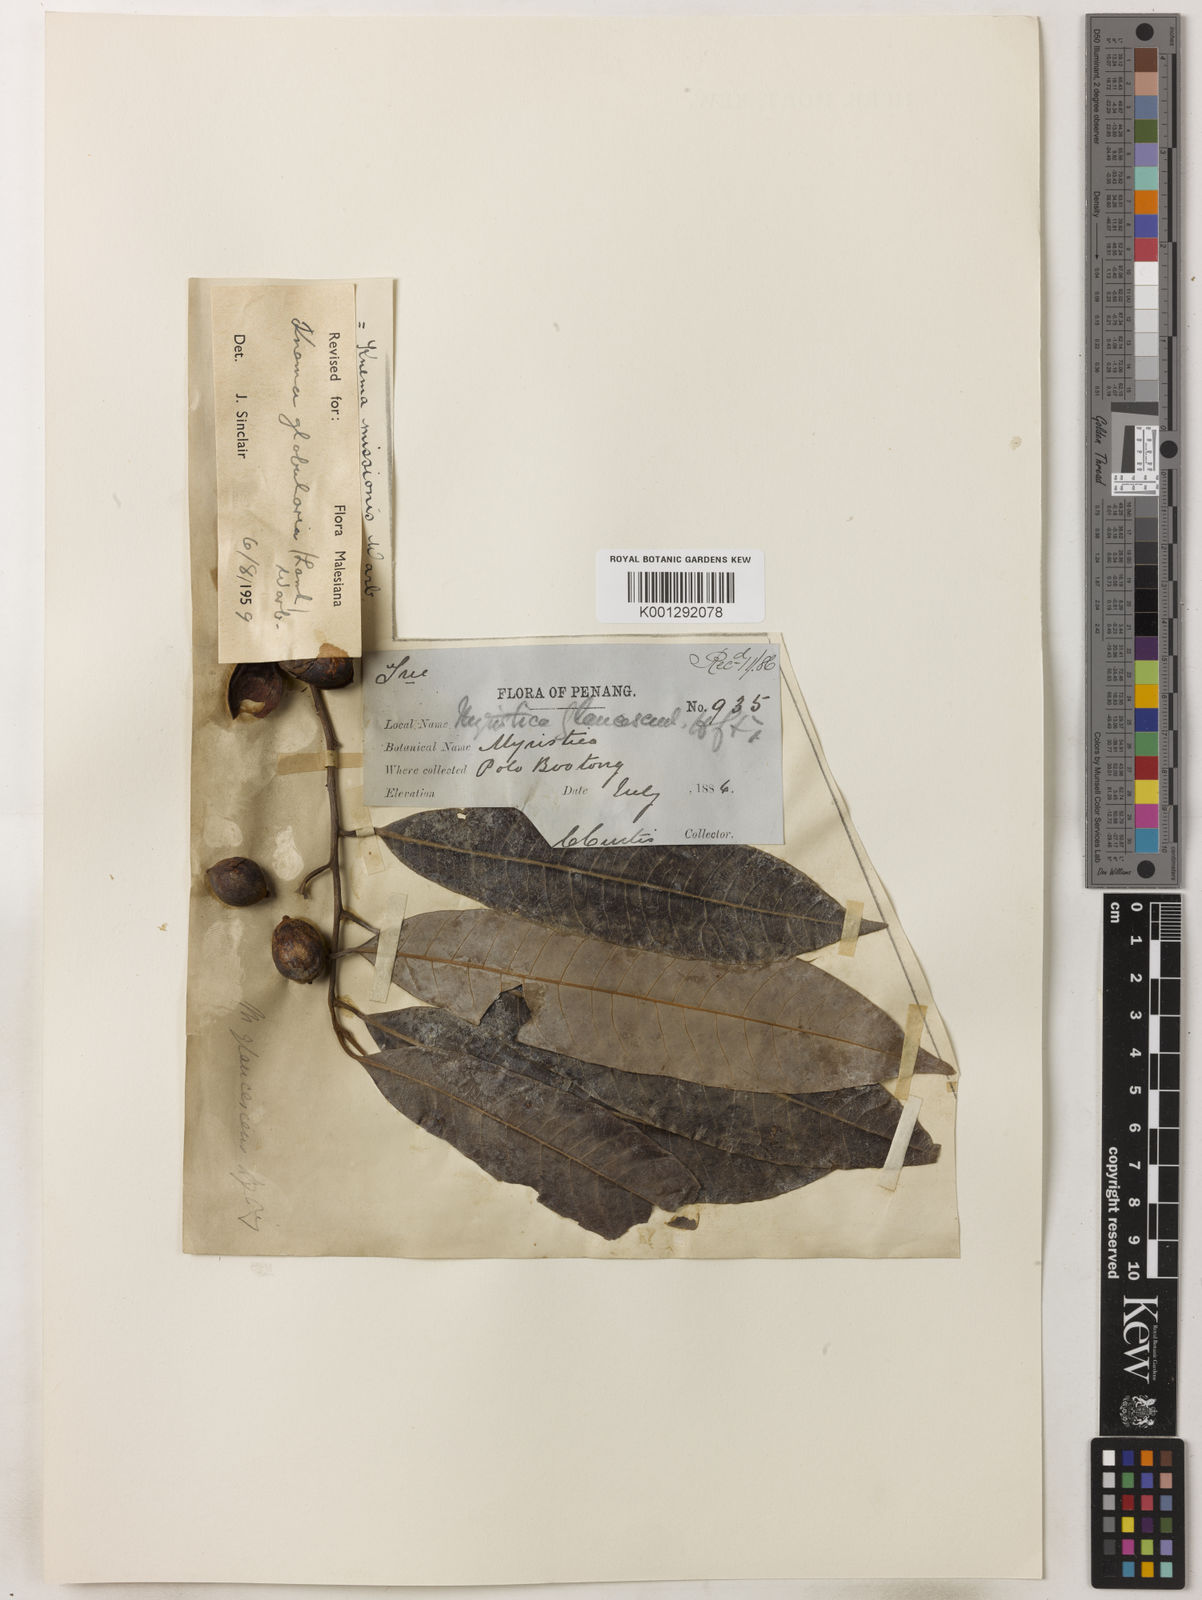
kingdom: Plantae
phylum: Tracheophyta
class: Magnoliopsida
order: Magnoliales
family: Myristicaceae
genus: Knema
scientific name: Knema globularia
